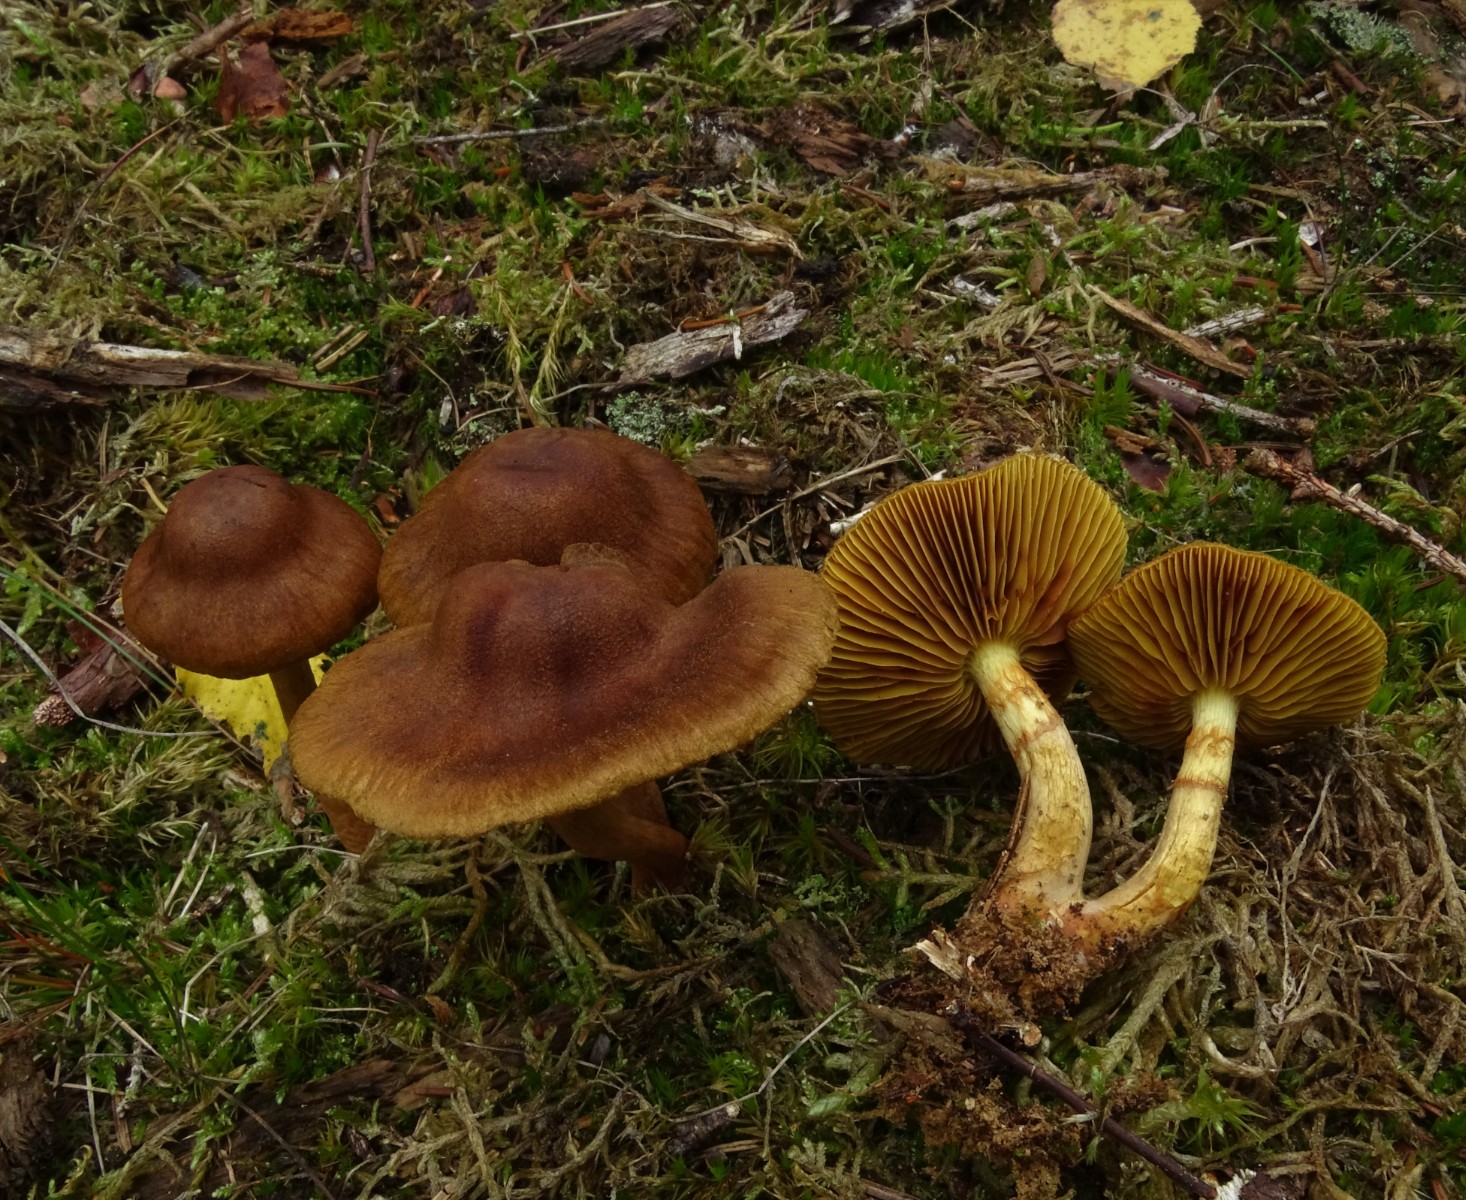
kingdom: Fungi
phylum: Basidiomycota
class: Agaricomycetes
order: Agaricales
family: Cortinariaceae
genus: Cortinarius
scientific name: Cortinarius
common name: gulbladet slørhat
